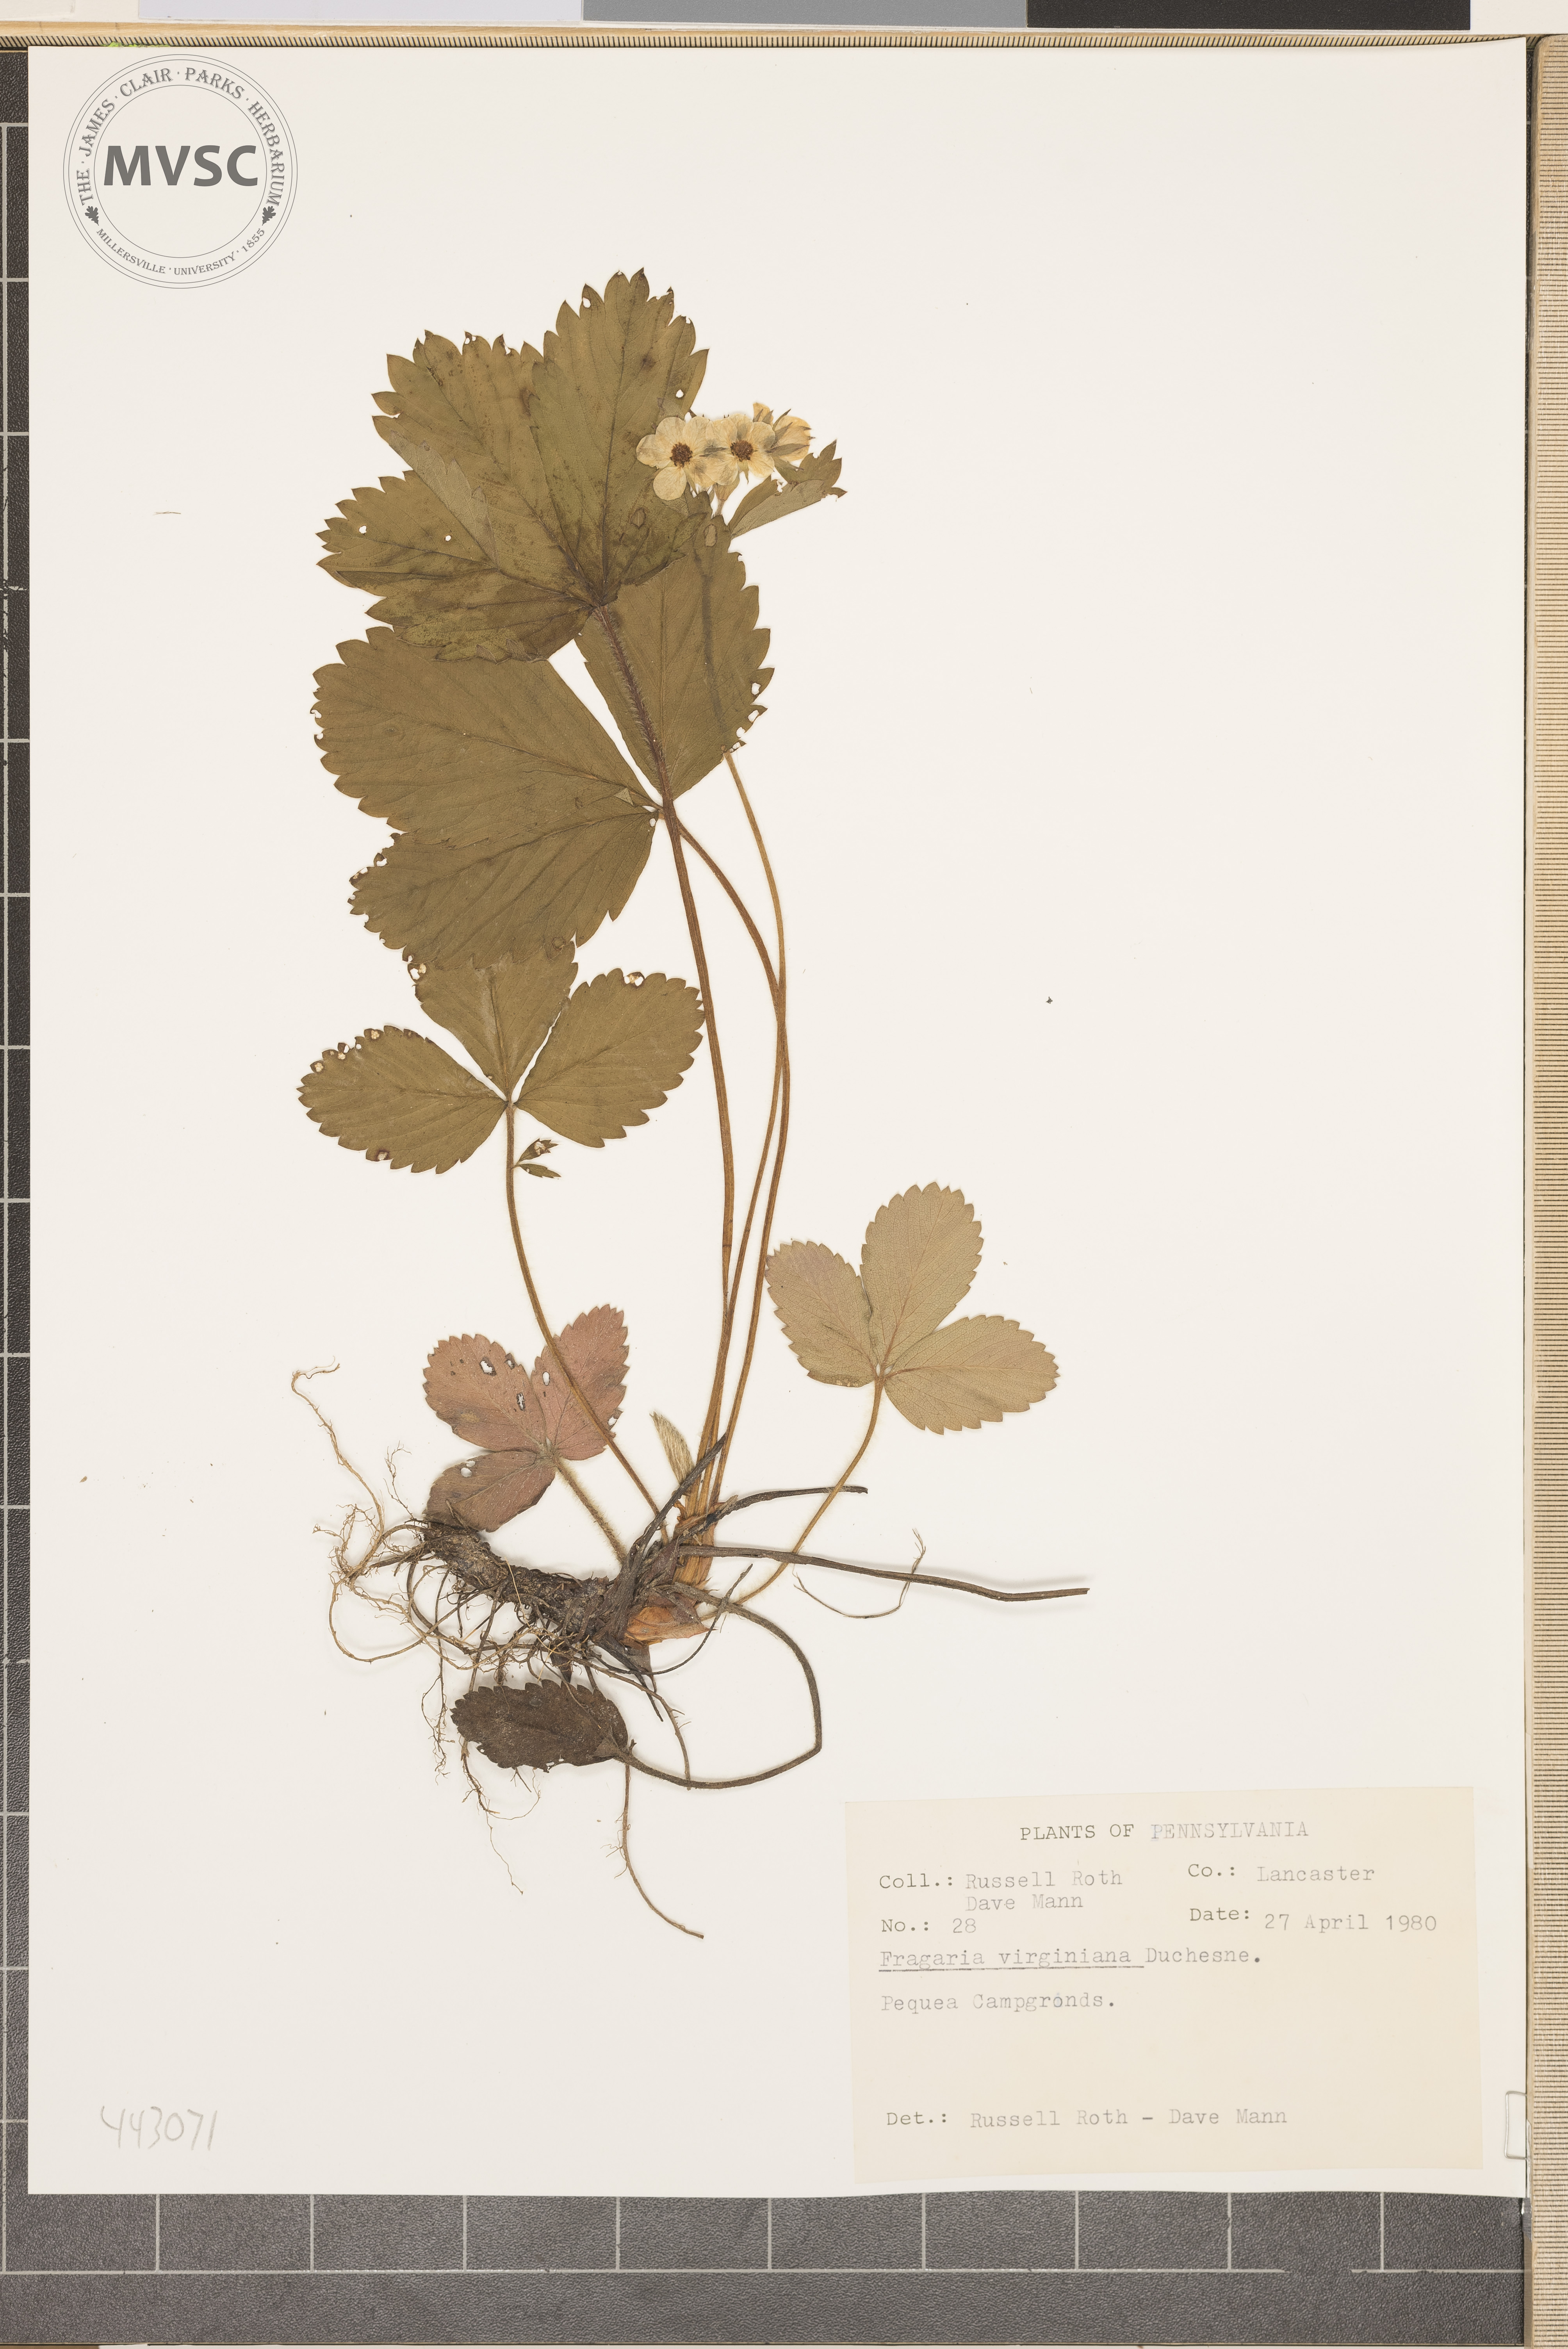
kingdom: Plantae
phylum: Tracheophyta
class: Magnoliopsida
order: Rosales
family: Rosaceae
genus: Fragaria
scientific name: Fragaria virginiana
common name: Thickleaved wild strawberry
